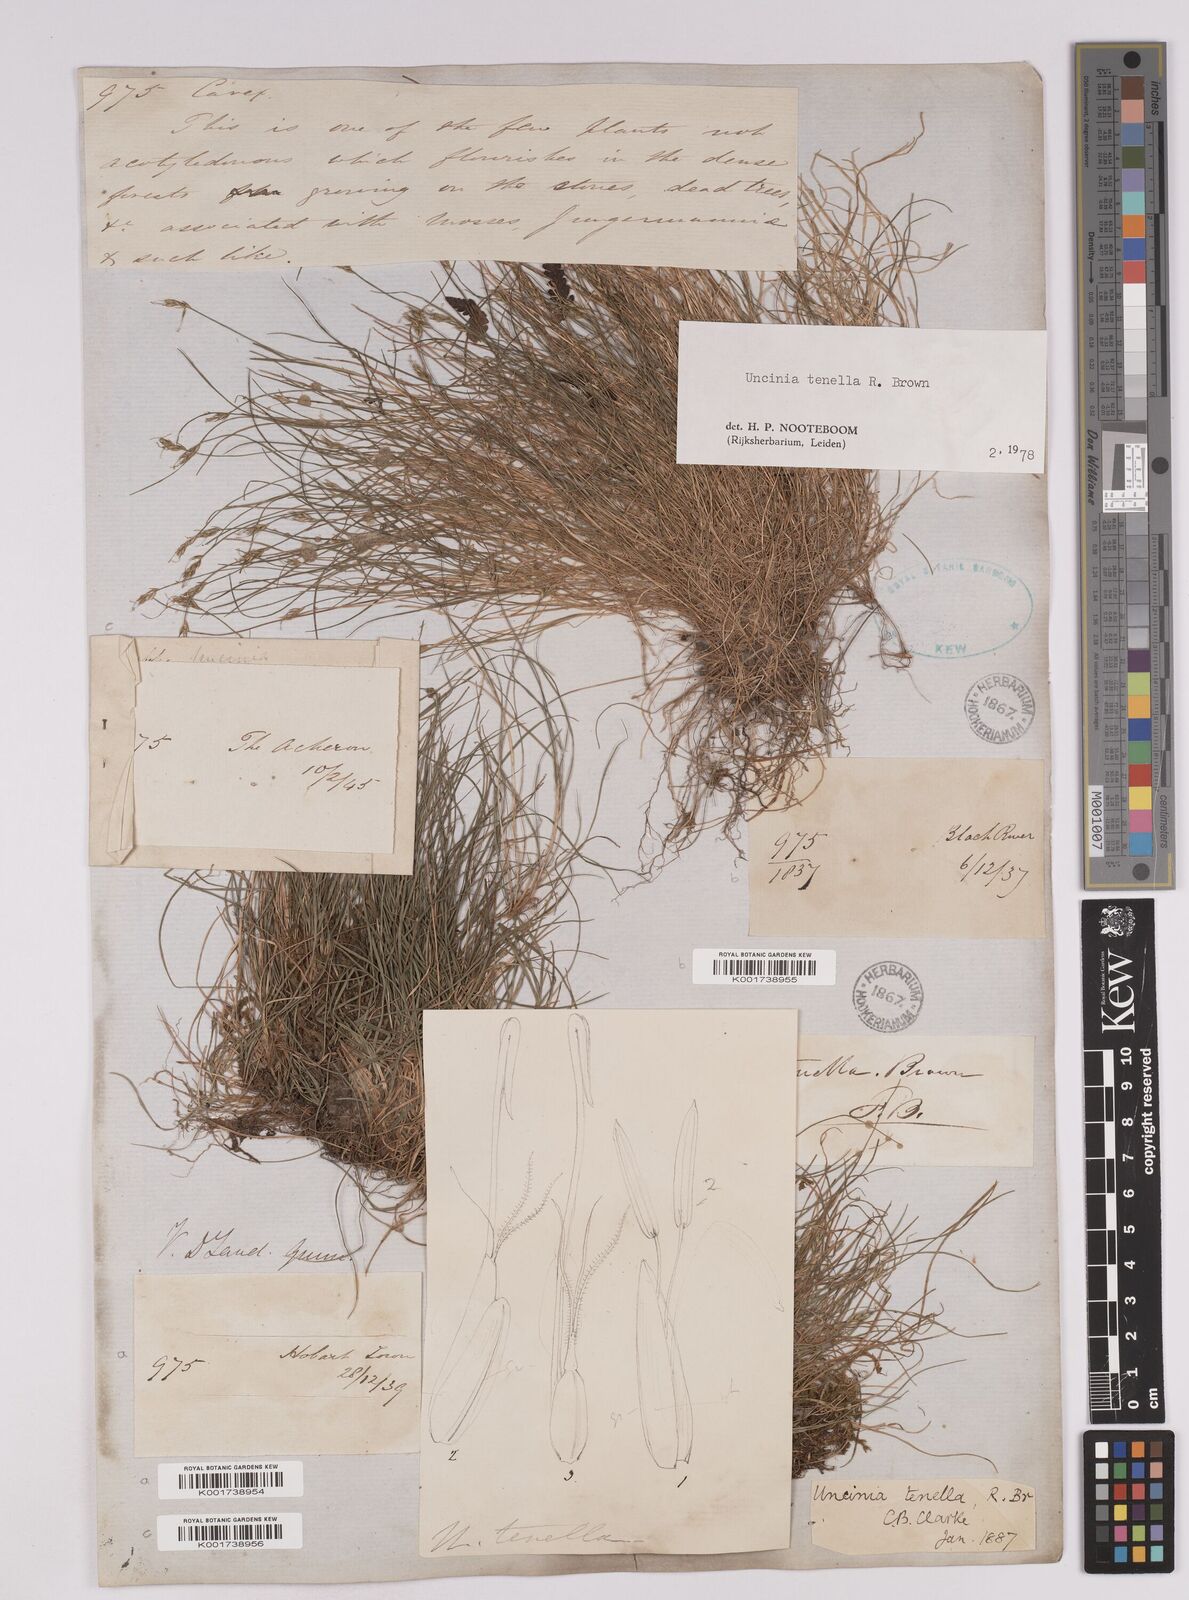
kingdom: Plantae
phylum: Tracheophyta
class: Liliopsida
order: Poales
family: Cyperaceae
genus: Carex
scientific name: Carex austrotenella
